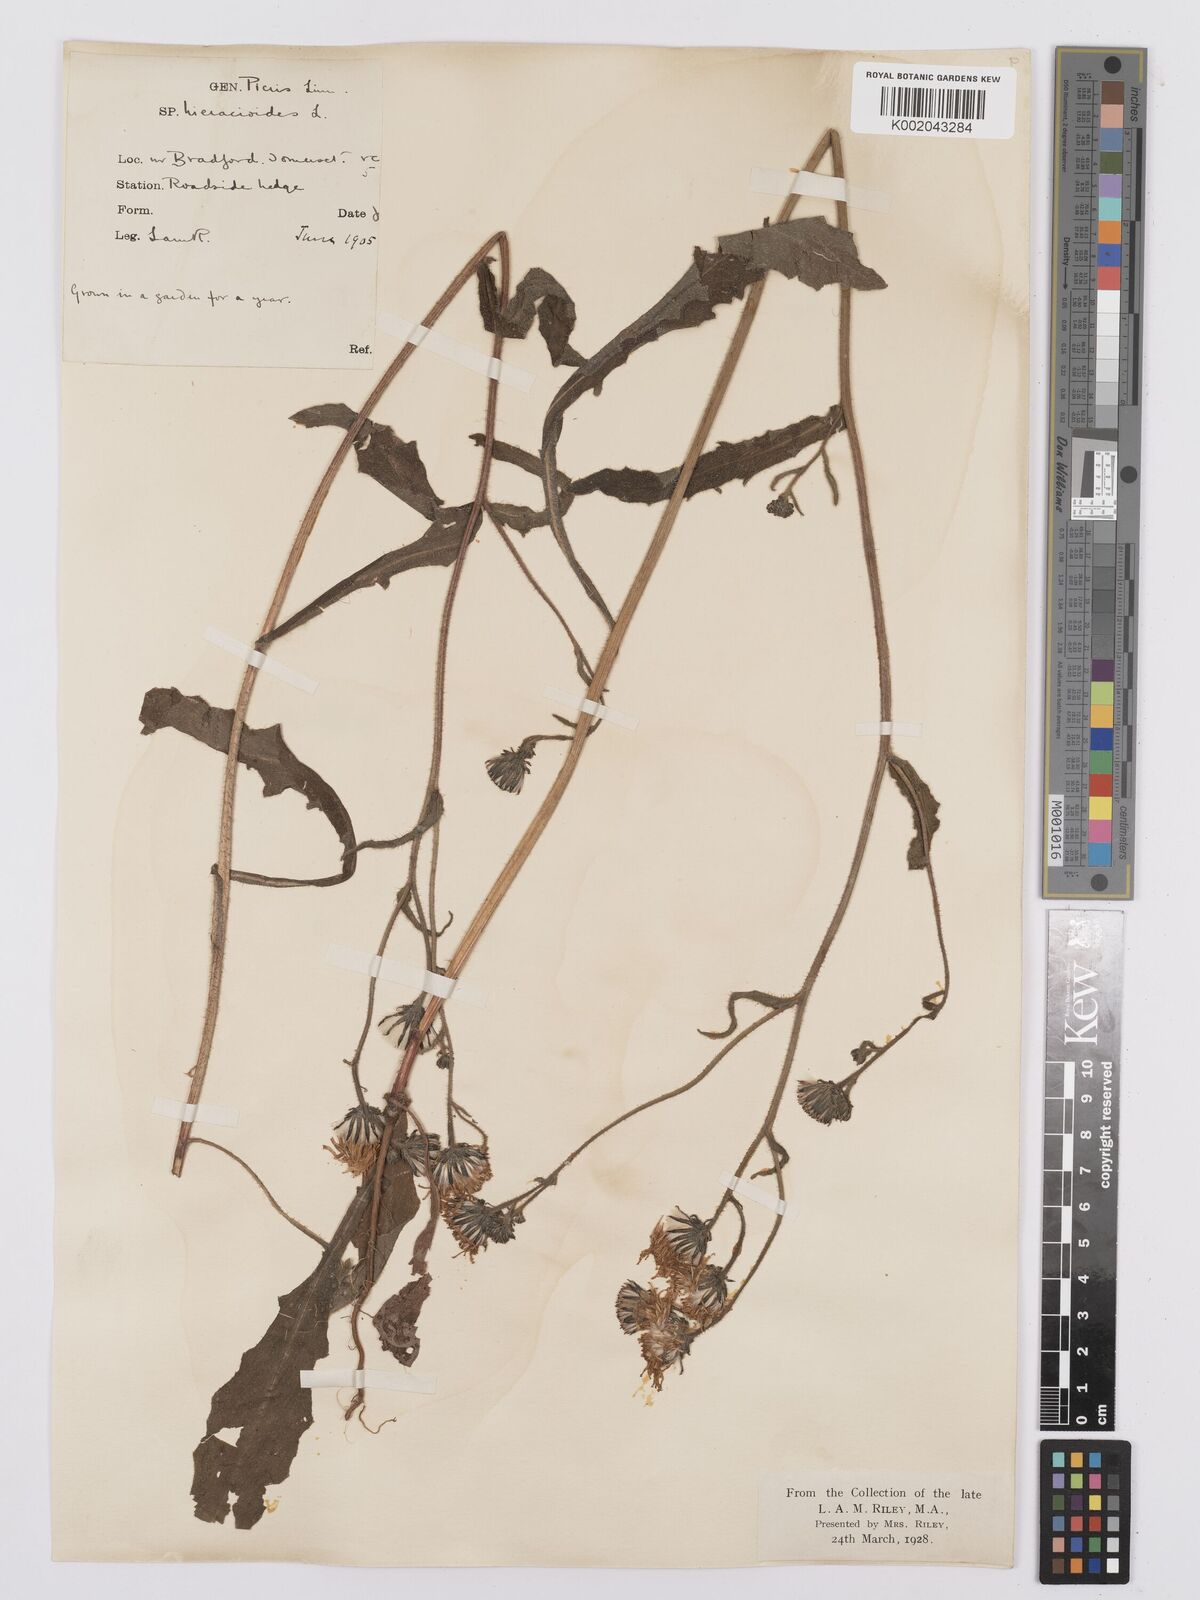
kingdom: Plantae
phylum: Tracheophyta
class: Magnoliopsida
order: Asterales
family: Asteraceae
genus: Picris
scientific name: Picris hieracioides
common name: Hawkweed oxtongue
